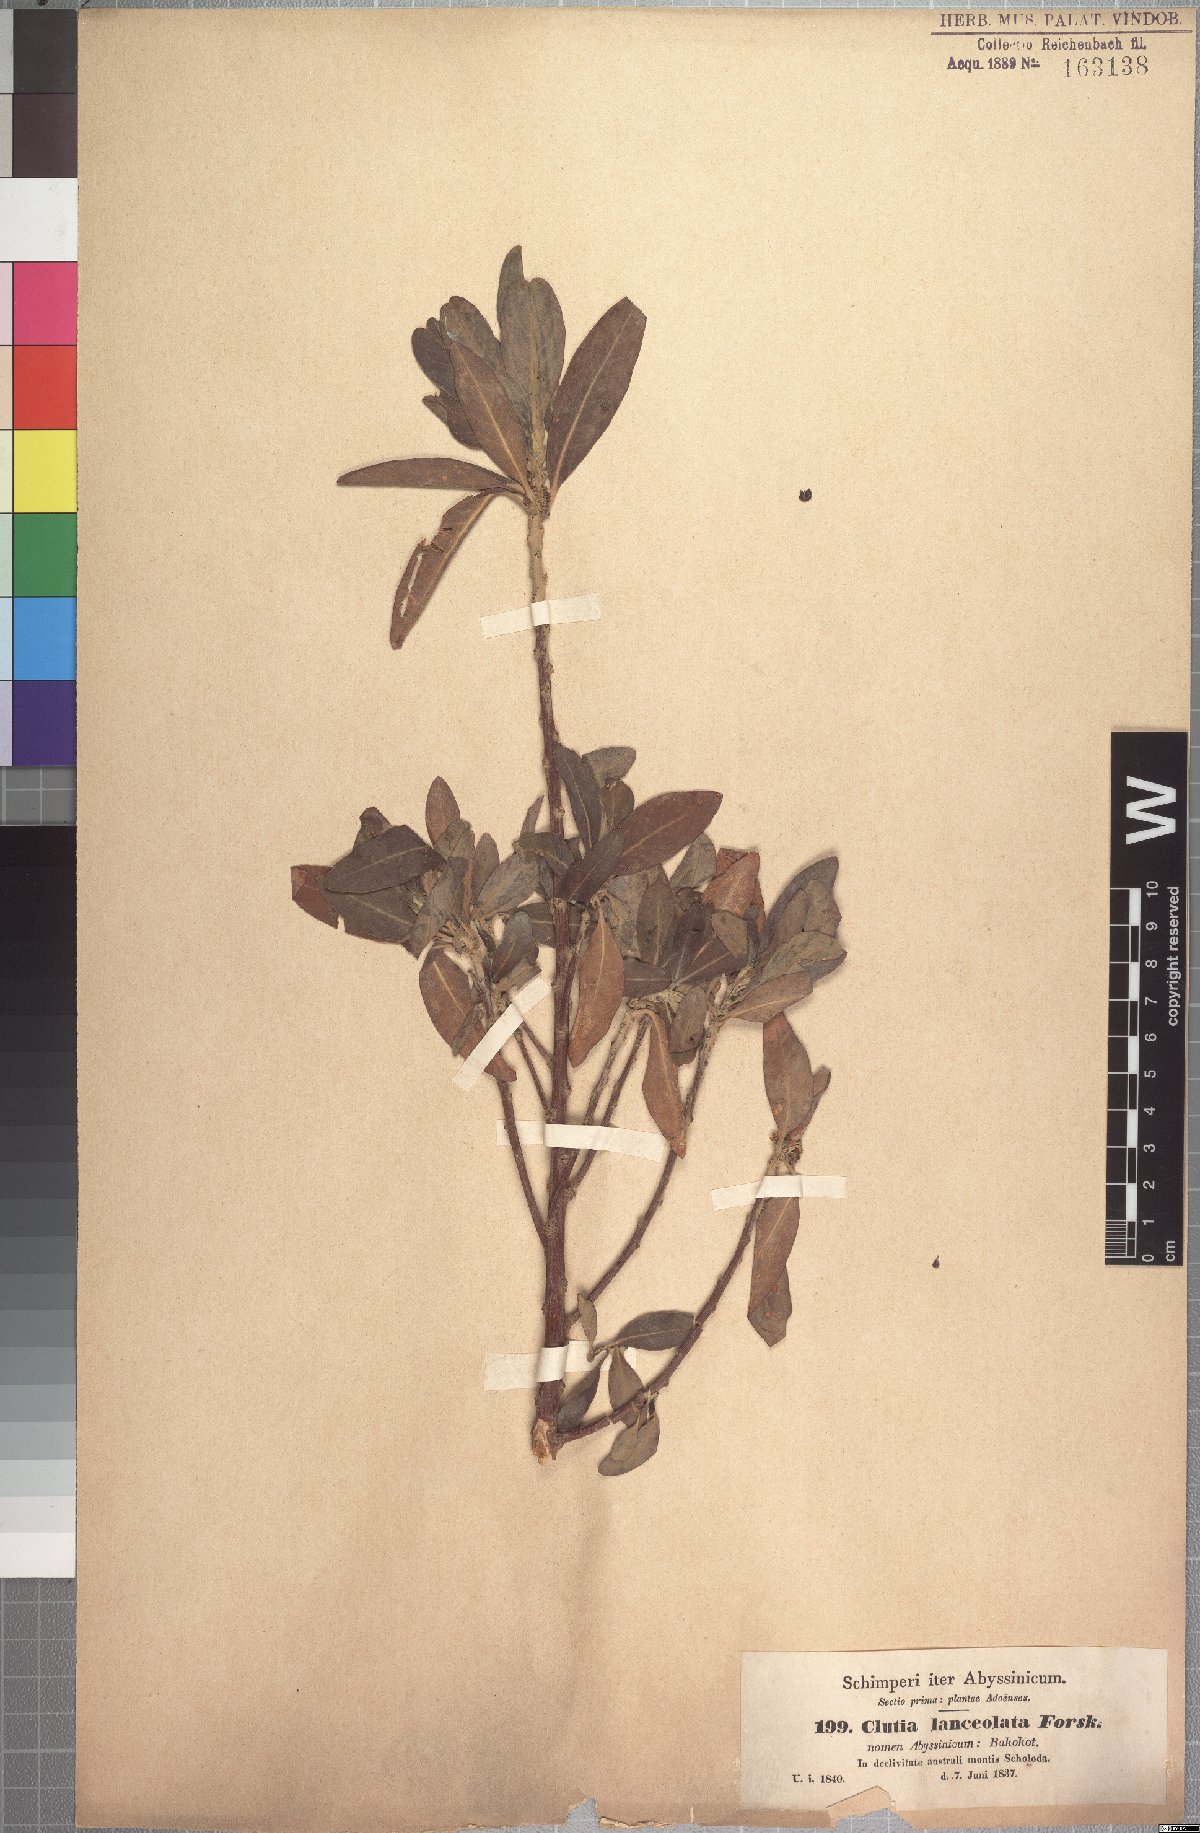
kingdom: Plantae
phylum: Tracheophyta
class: Magnoliopsida
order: Malpighiales
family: Peraceae
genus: Clutia
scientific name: Clutia lanceolata
